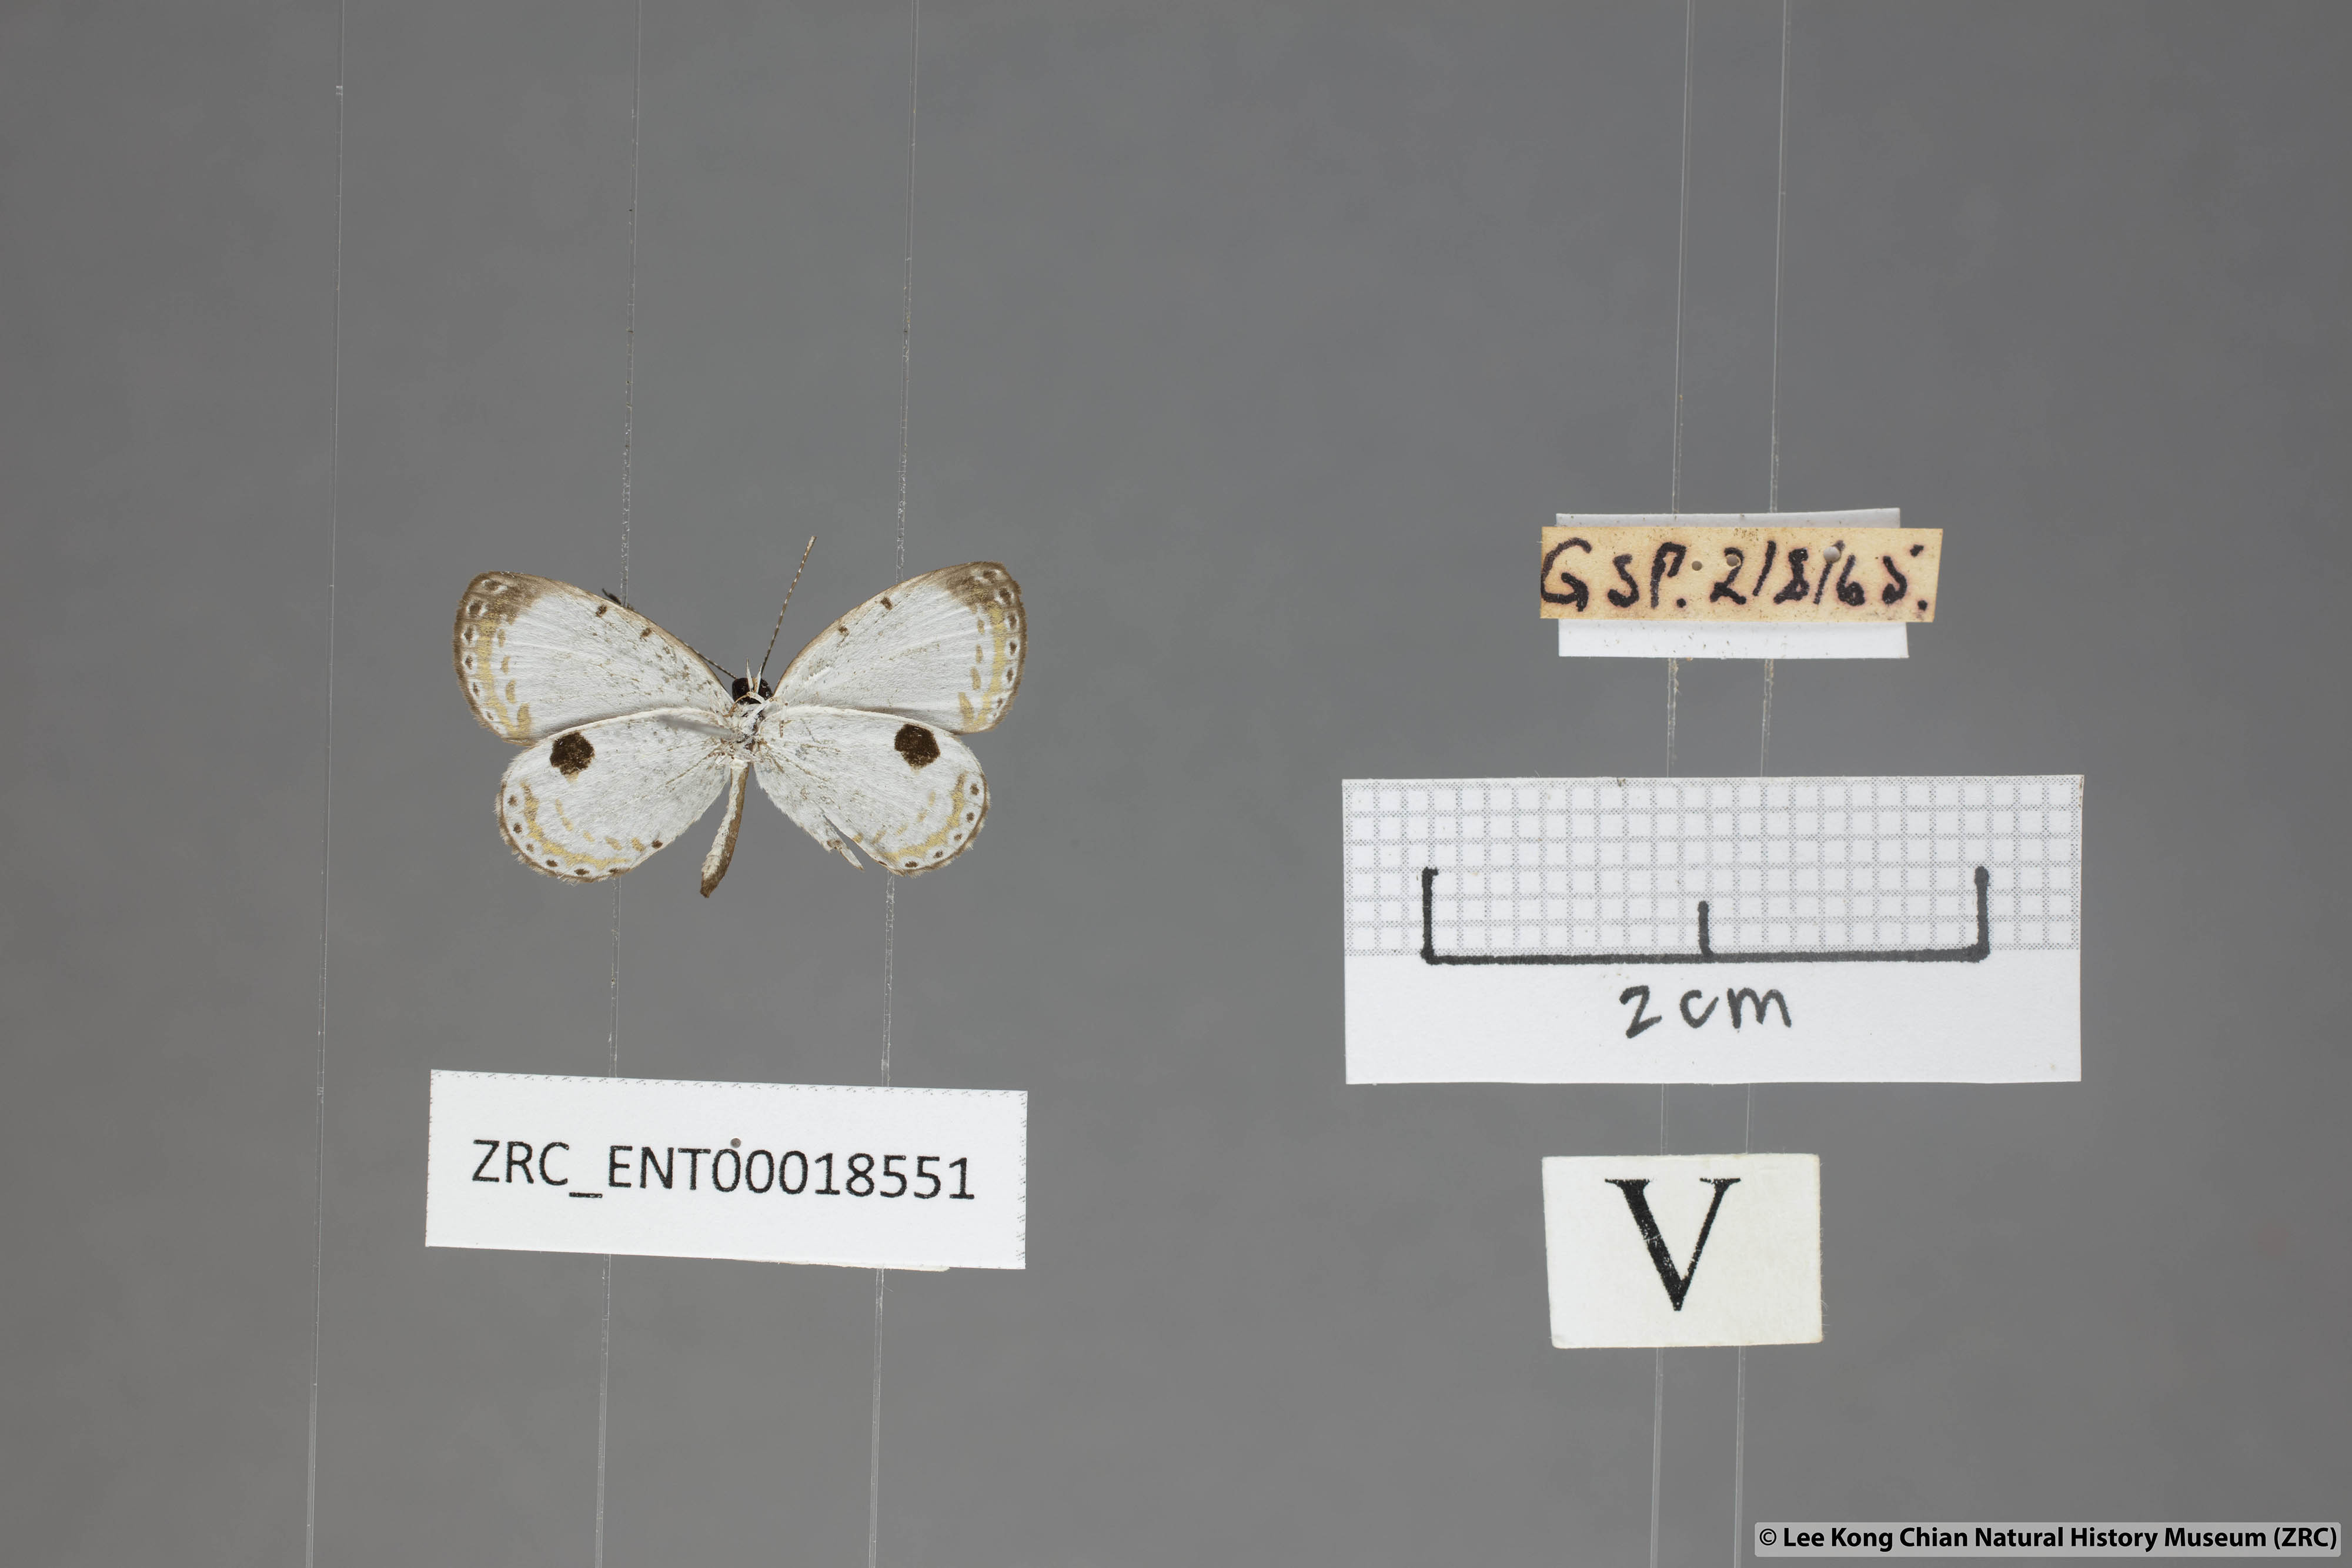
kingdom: Animalia
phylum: Arthropoda
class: Insecta
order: Lepidoptera
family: Lycaenidae
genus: Pithecops
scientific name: Pithecops corvus
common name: Forest quaker
